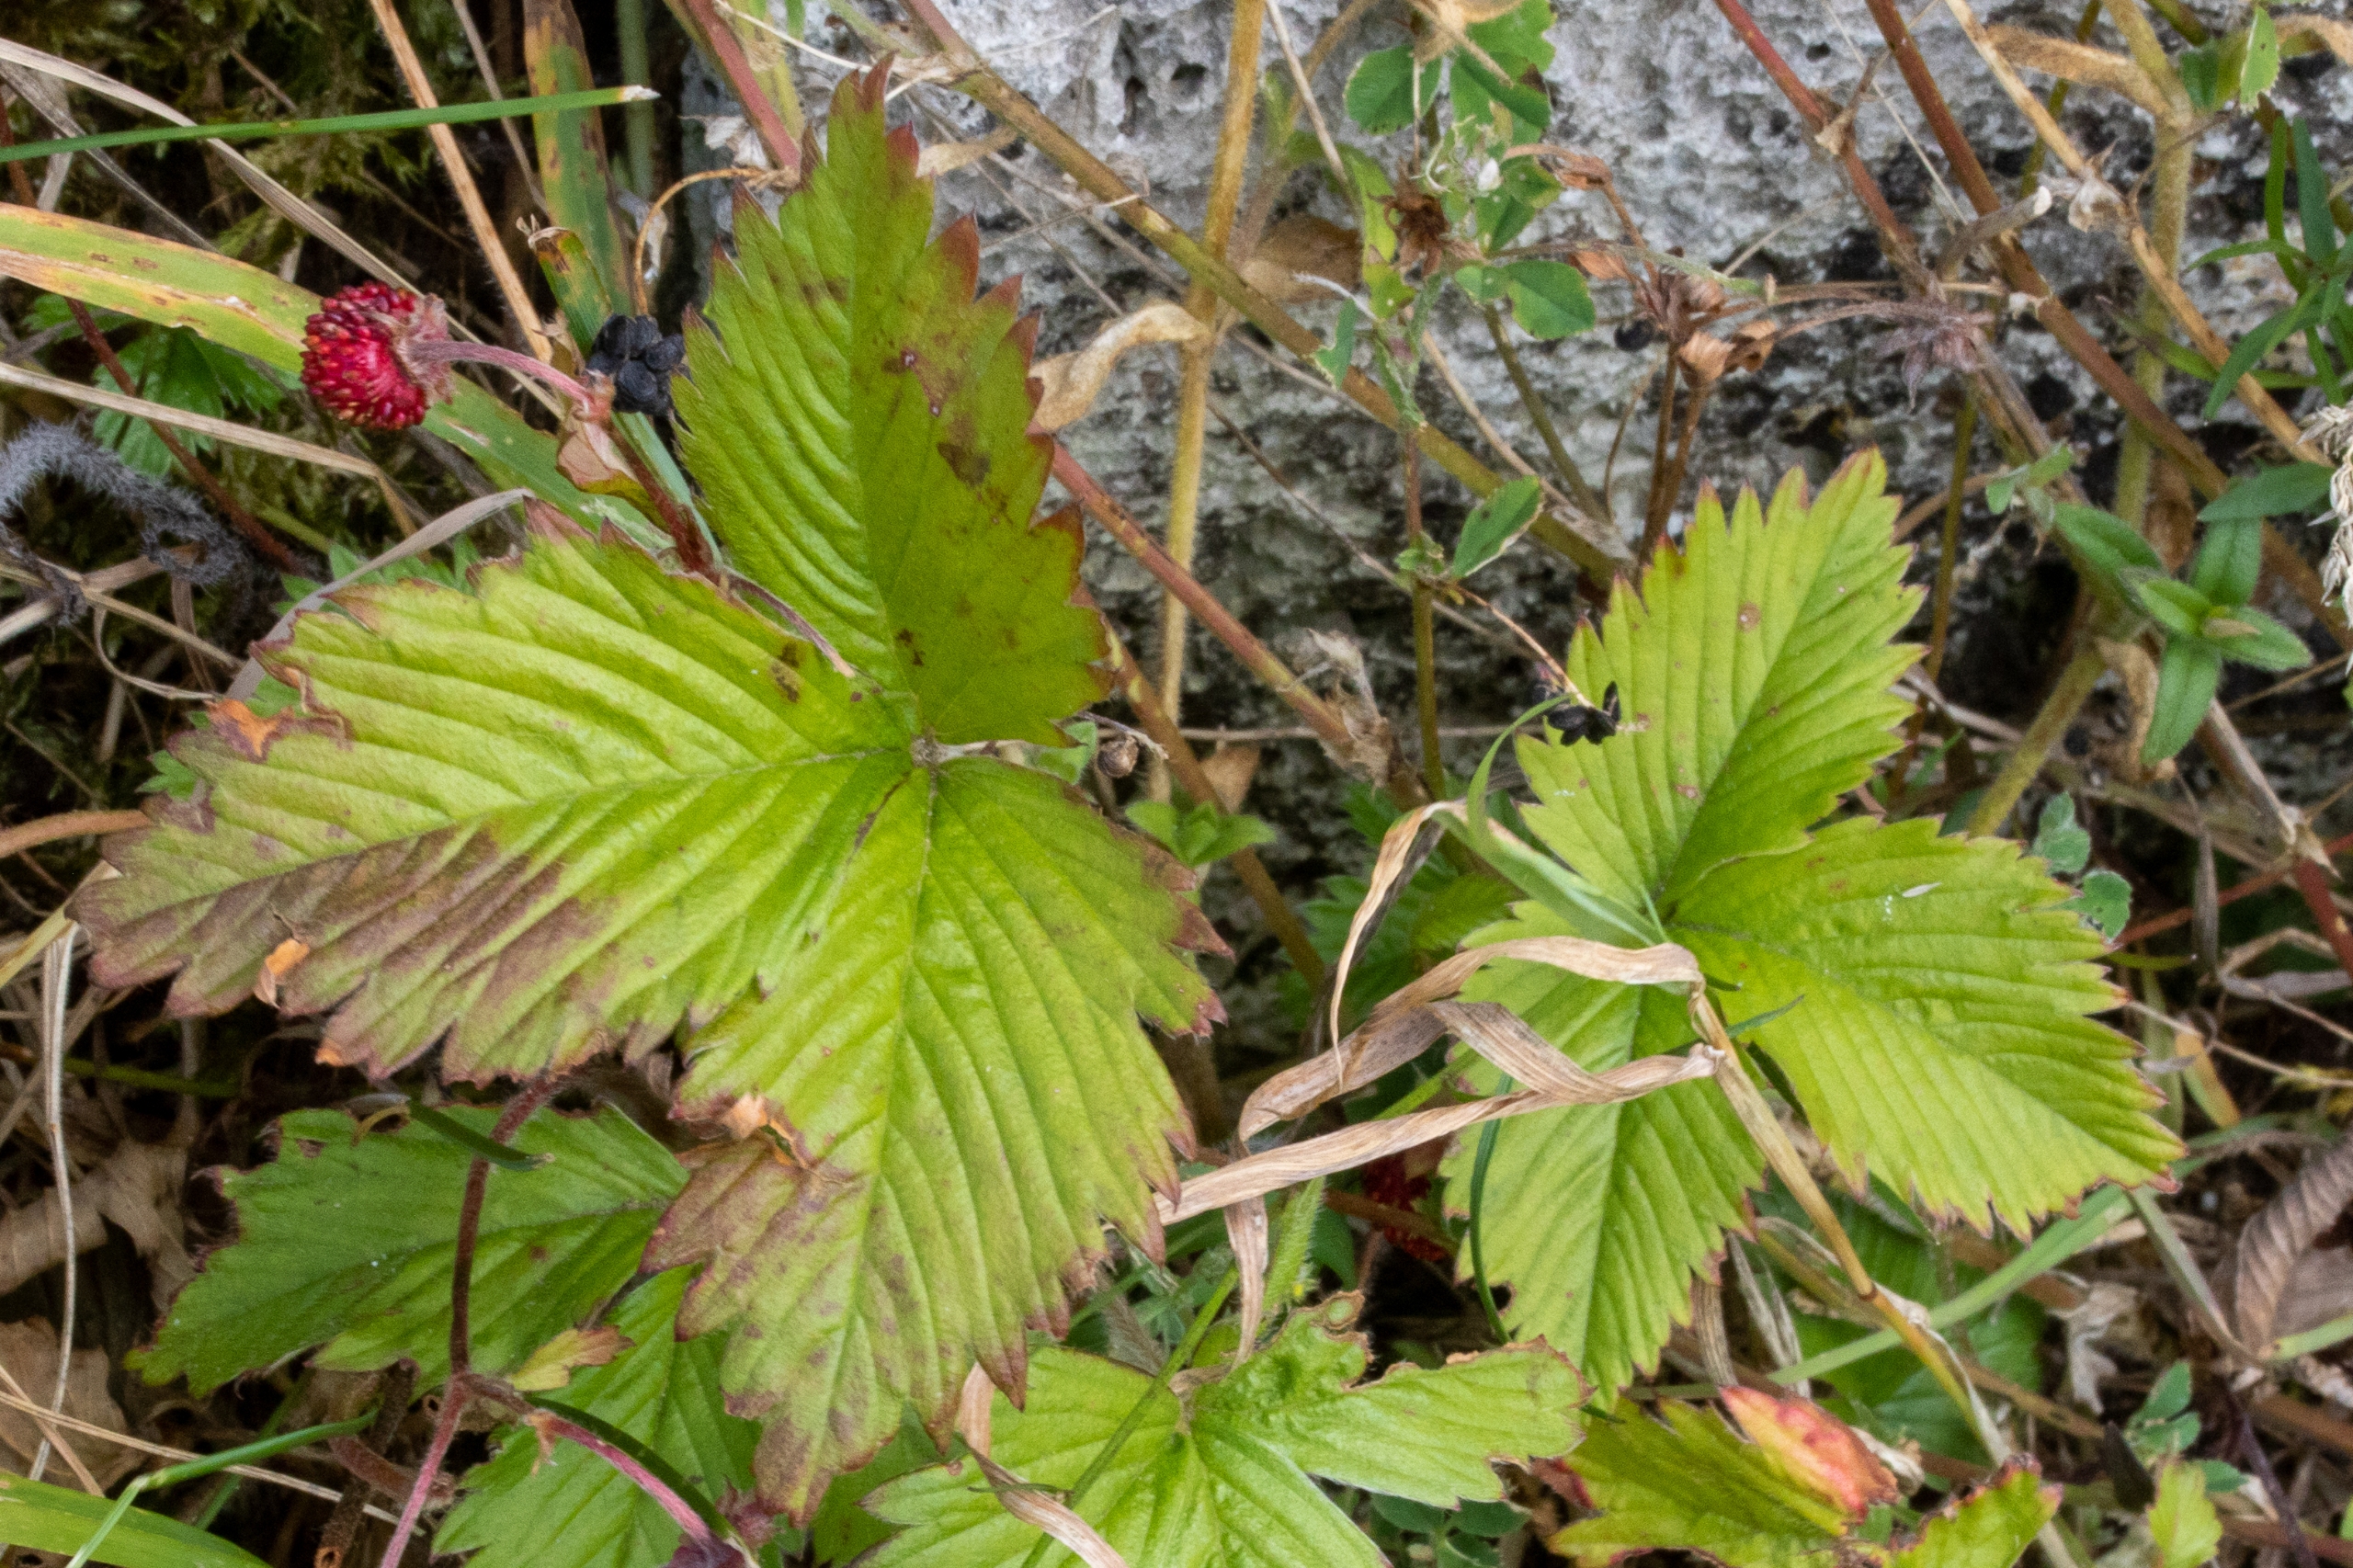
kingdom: Plantae
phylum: Tracheophyta
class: Magnoliopsida
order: Rosales
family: Rosaceae
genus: Fragaria
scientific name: Fragaria vesca
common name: Skov-jordbær
